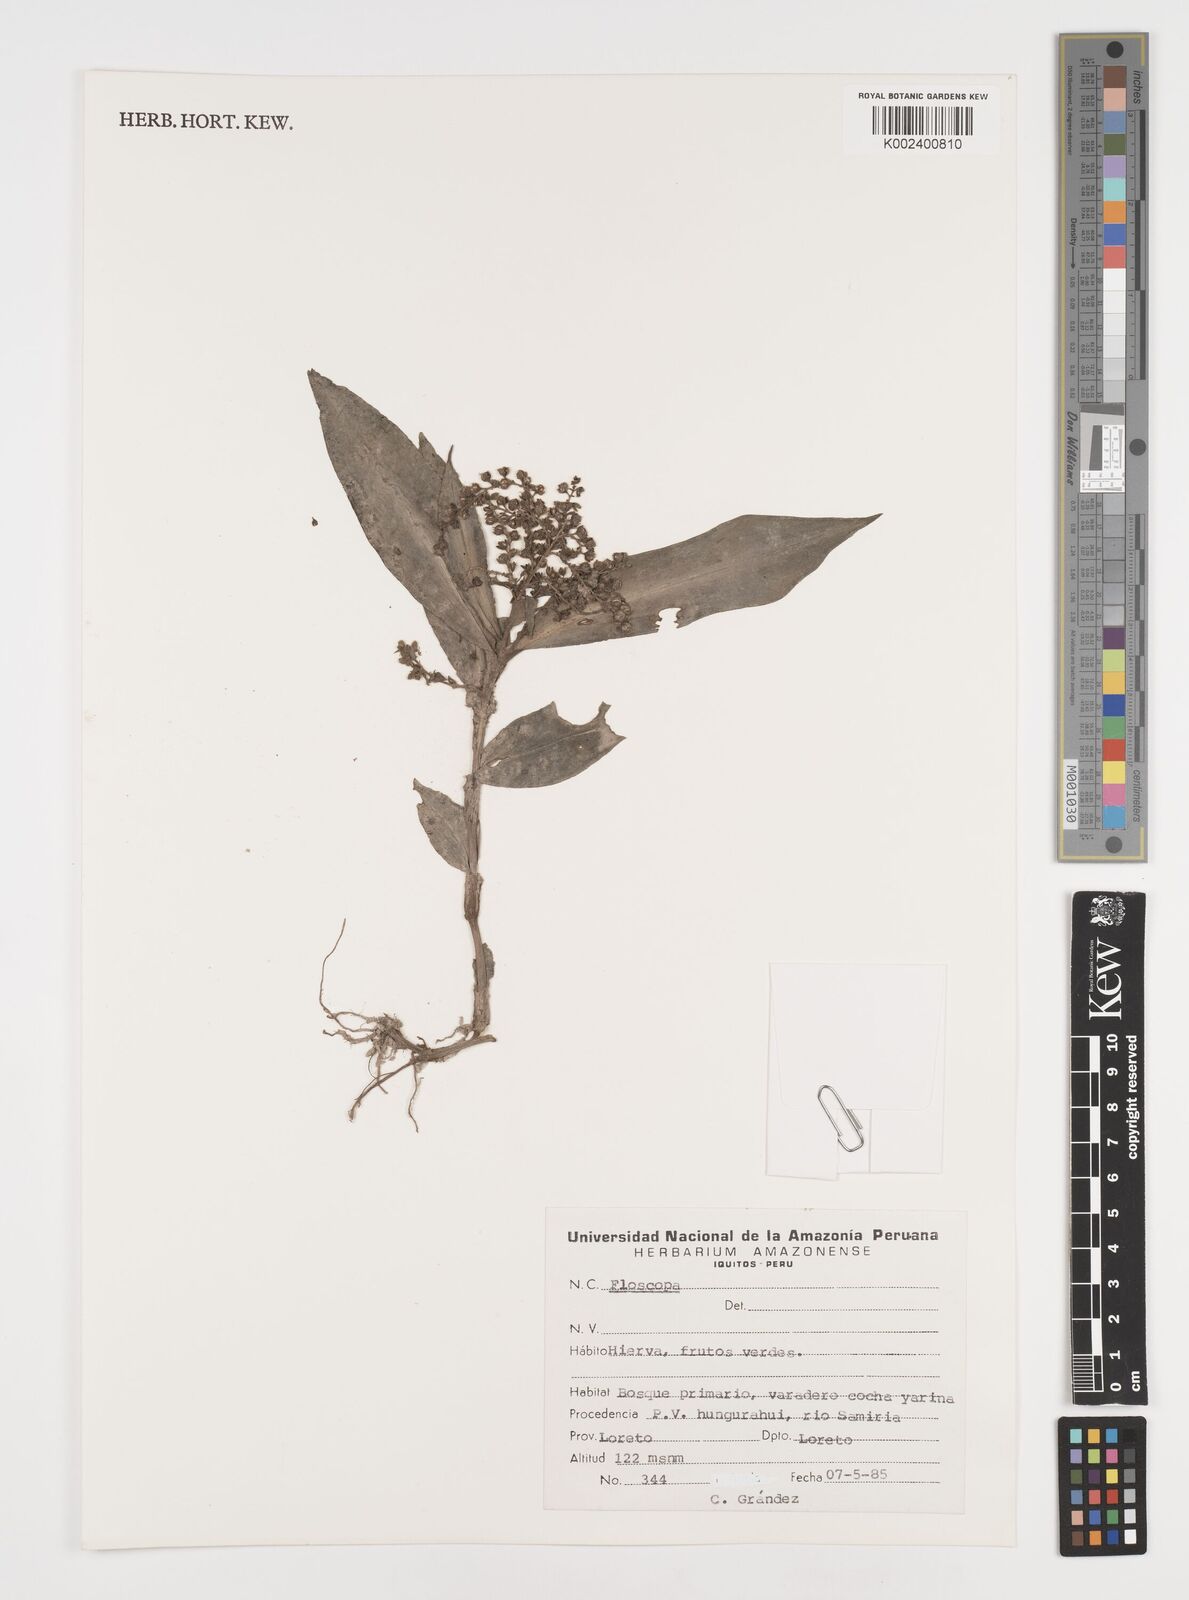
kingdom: Plantae
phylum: Tracheophyta
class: Liliopsida
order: Commelinales
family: Commelinaceae
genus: Floscopa
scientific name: Floscopa
